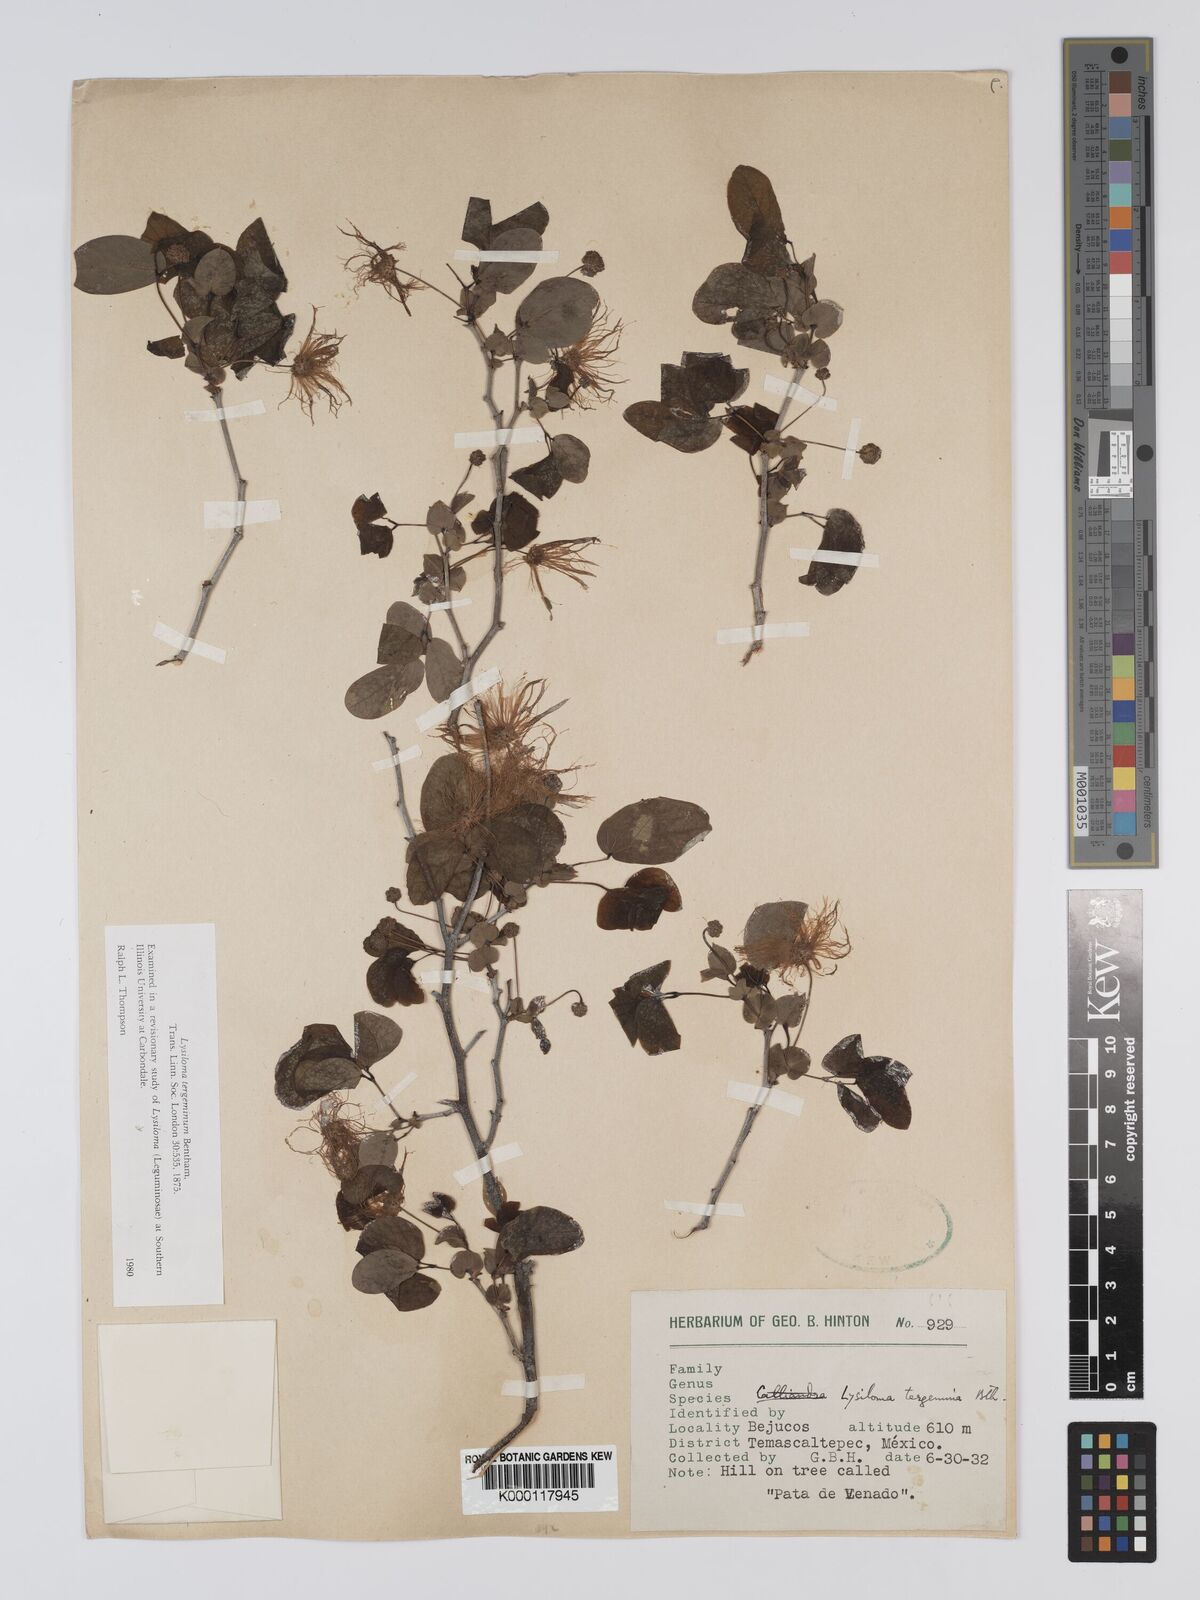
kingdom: Plantae
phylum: Tracheophyta
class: Magnoliopsida
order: Fabales
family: Fabaceae
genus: Lysiloma
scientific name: Lysiloma tergeminum
